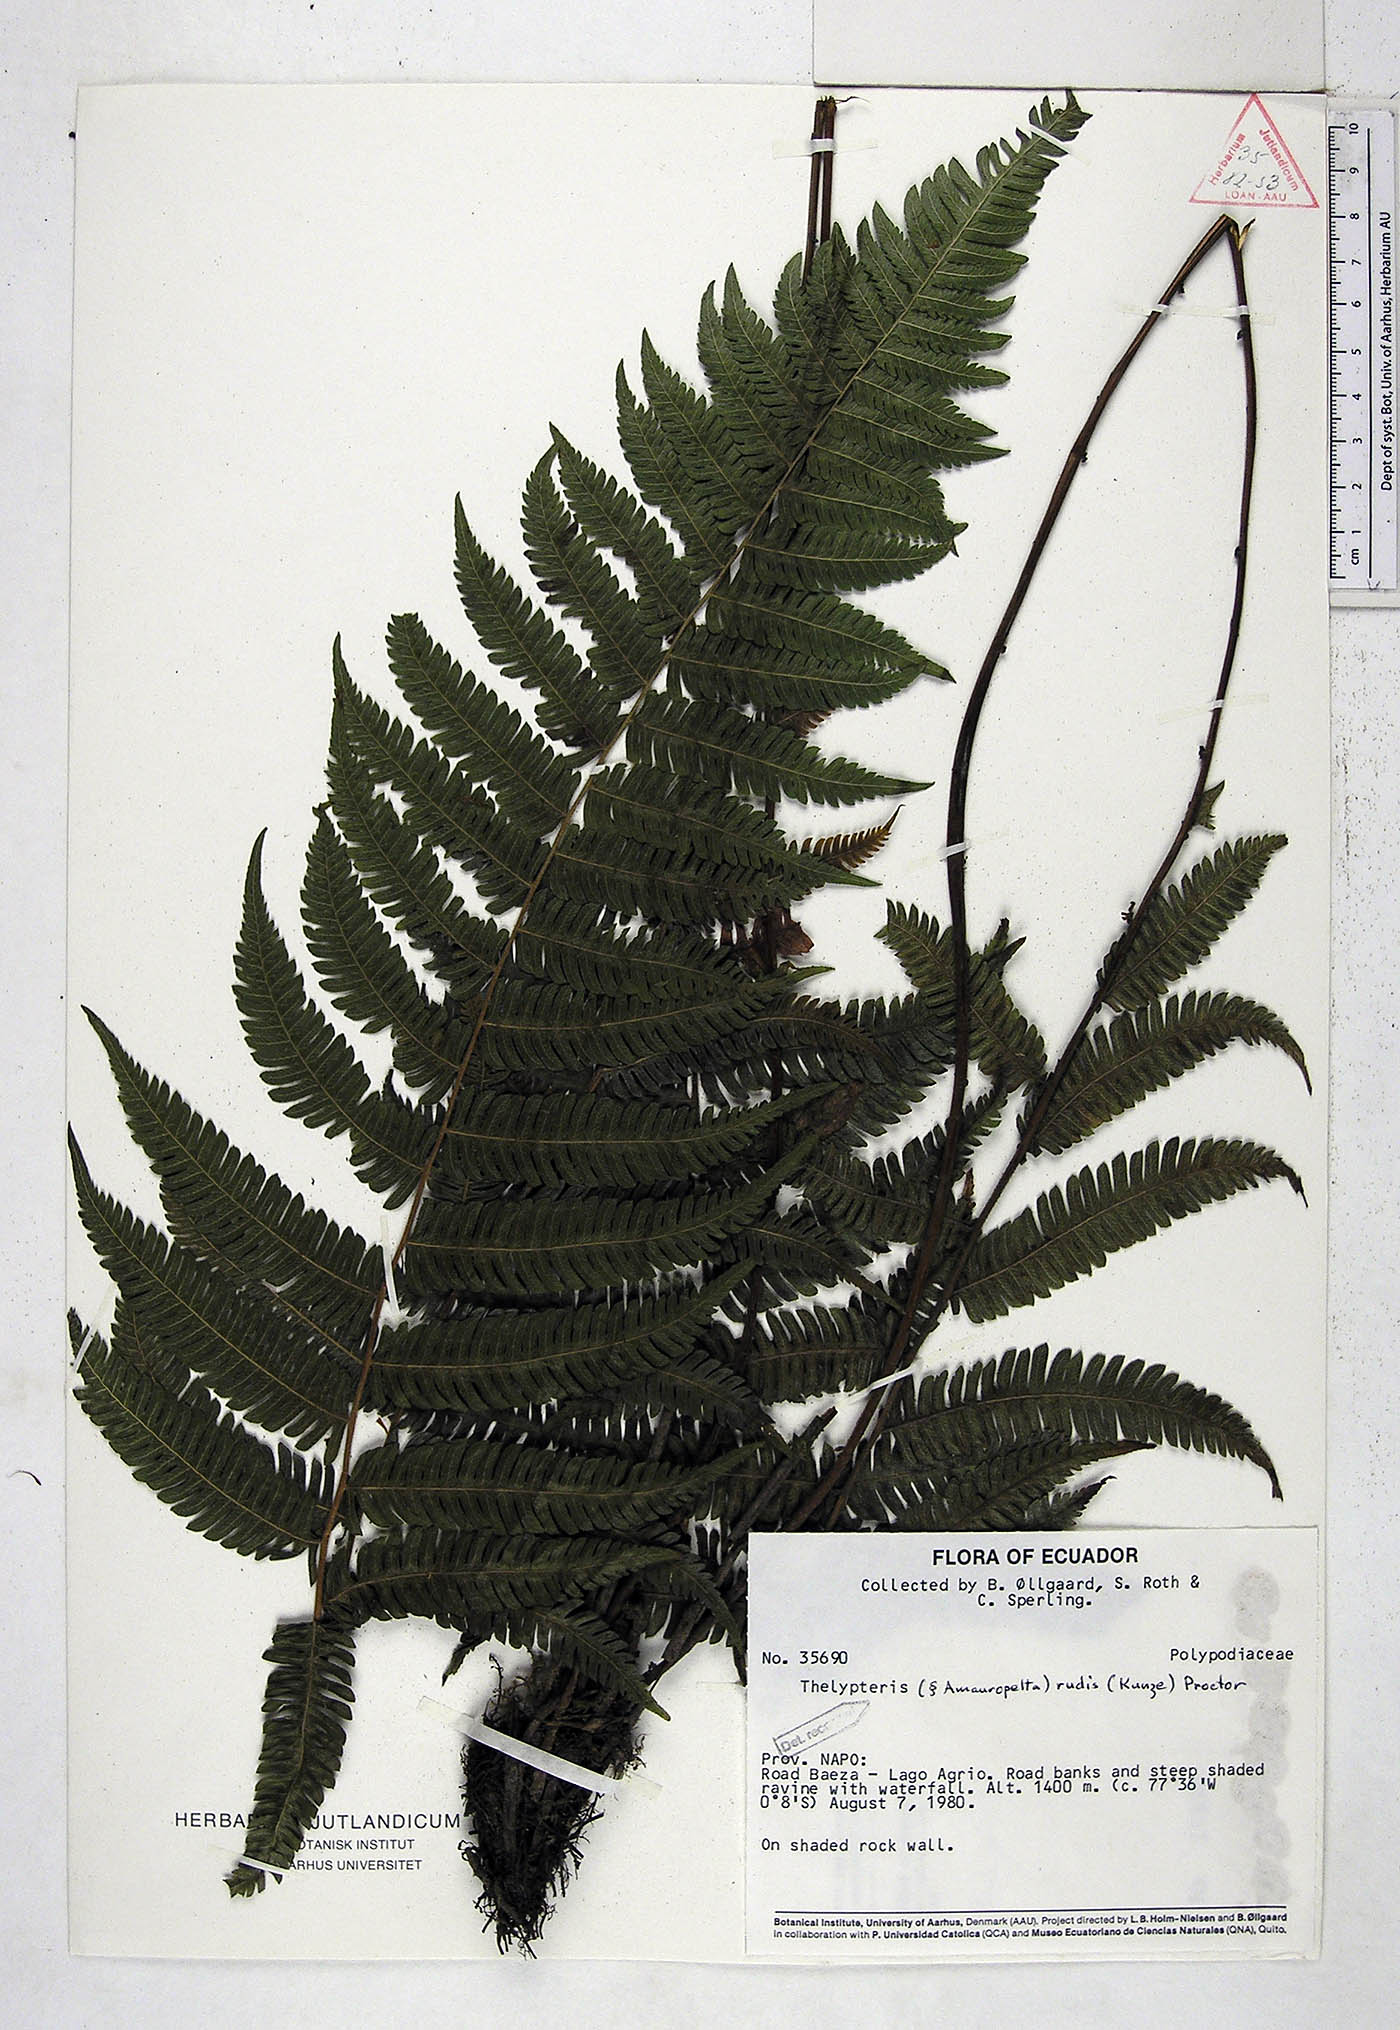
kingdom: Plantae
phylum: Tracheophyta
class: Polypodiopsida
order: Polypodiales
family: Thelypteridaceae
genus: Amauropelta
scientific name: Amauropelta rudis
